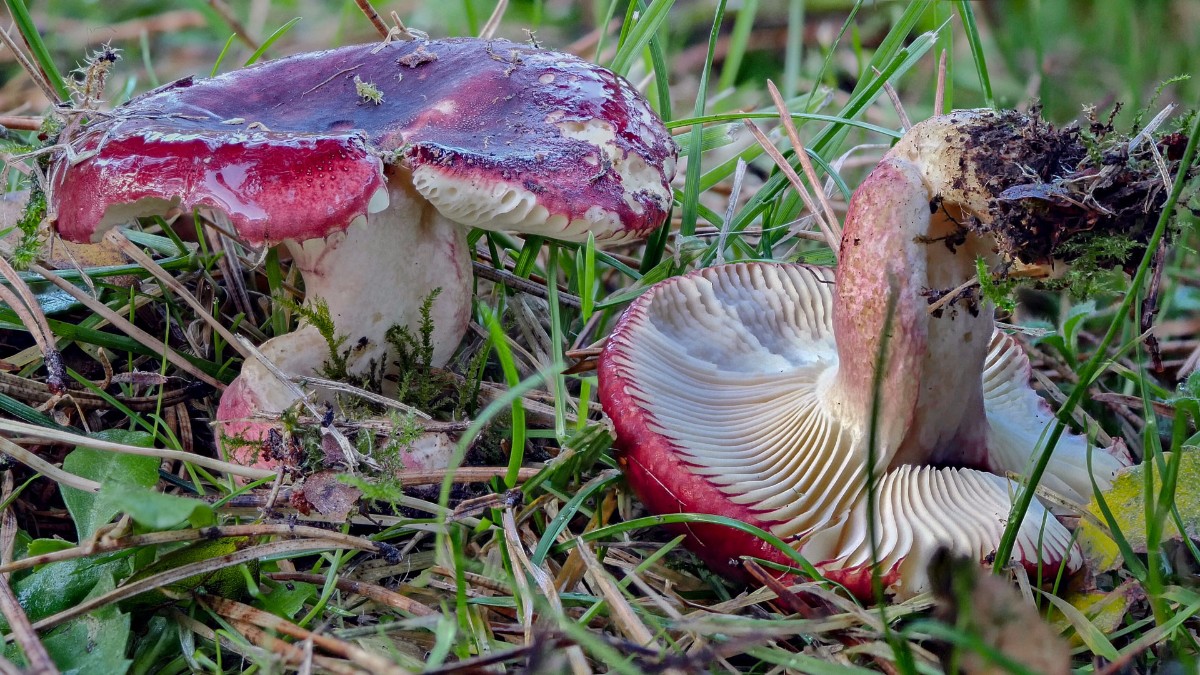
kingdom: Fungi
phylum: Basidiomycota
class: Agaricomycetes
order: Russulales
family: Russulaceae
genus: Russula
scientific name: Russula xerampelina
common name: hummer-skørhat
